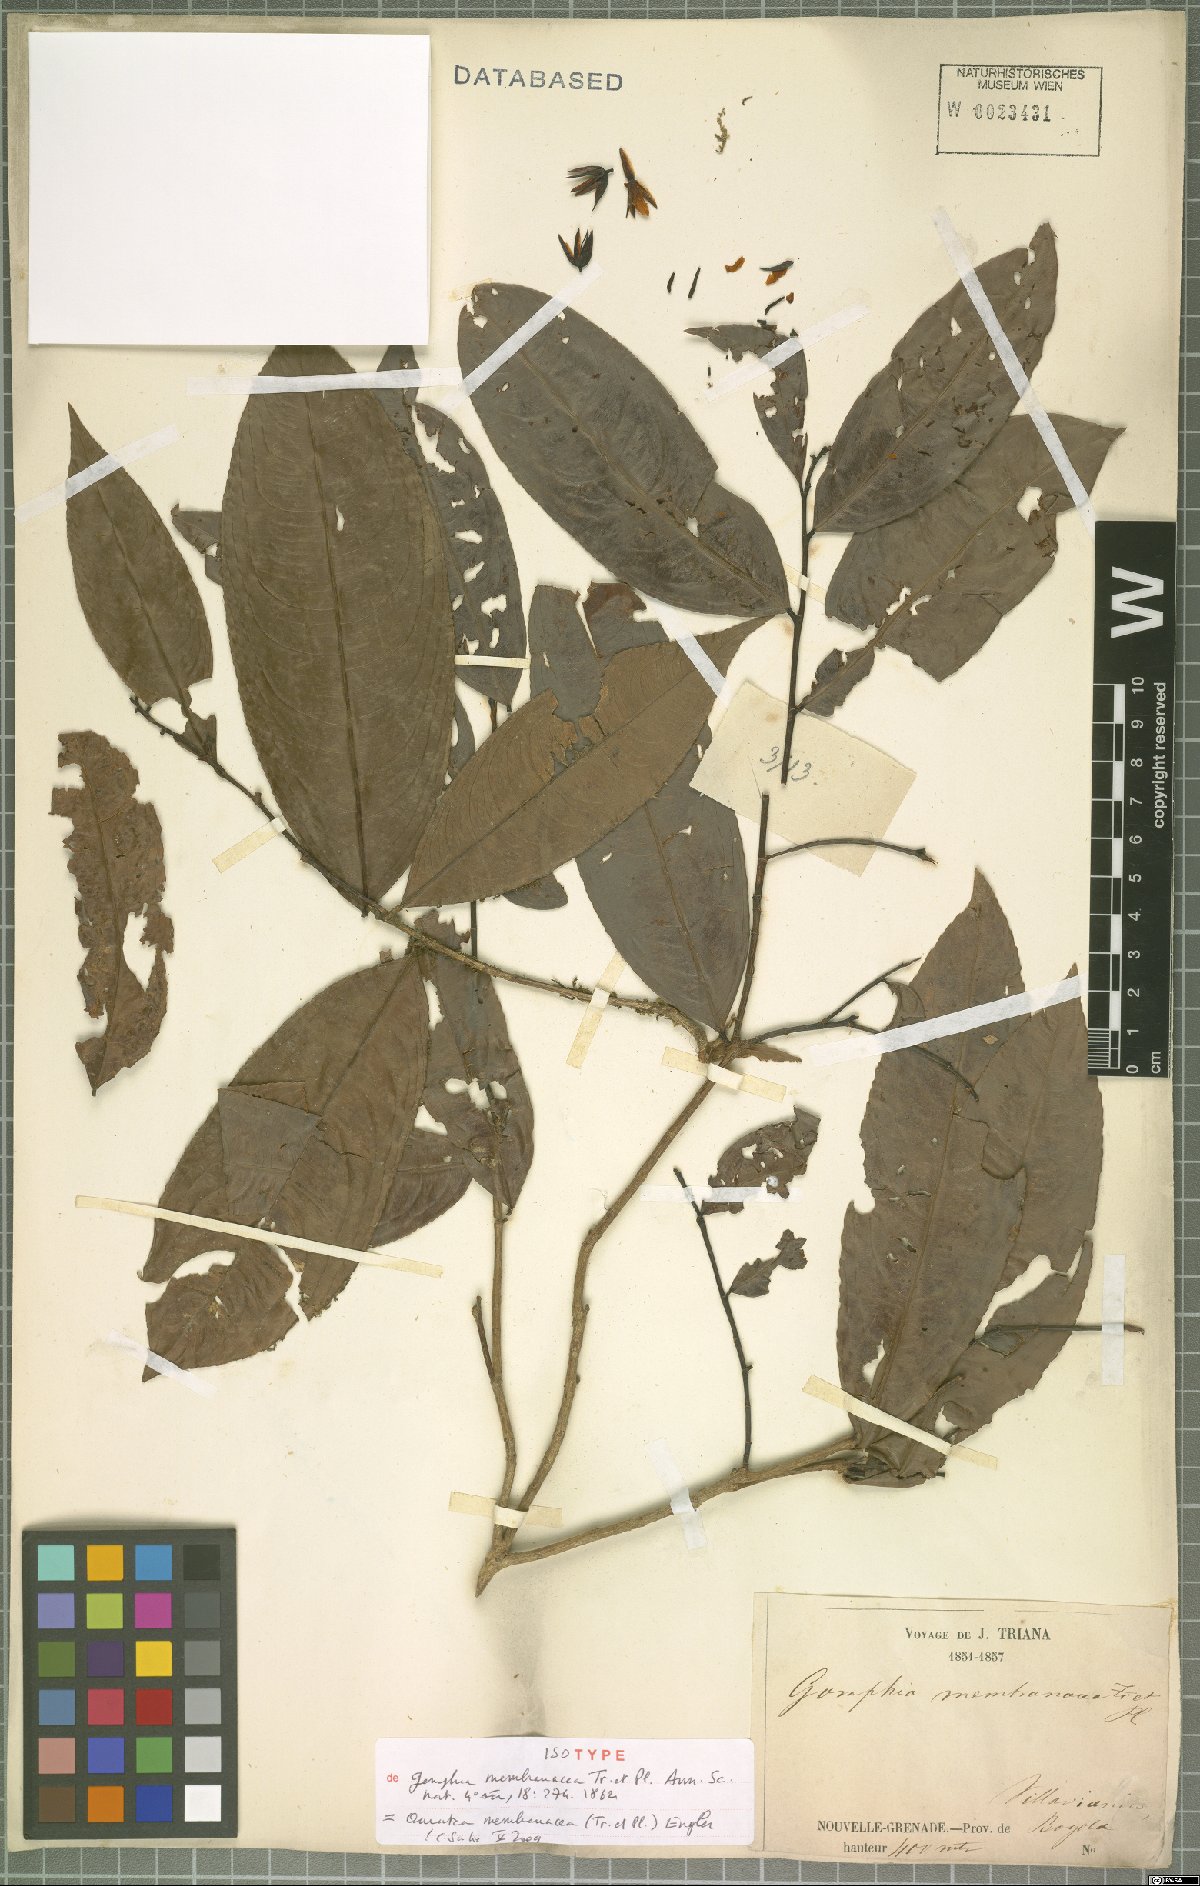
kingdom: Plantae
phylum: Tracheophyta
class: Magnoliopsida
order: Malpighiales
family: Ochnaceae
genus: Ouratea
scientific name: Ouratea membranacea
